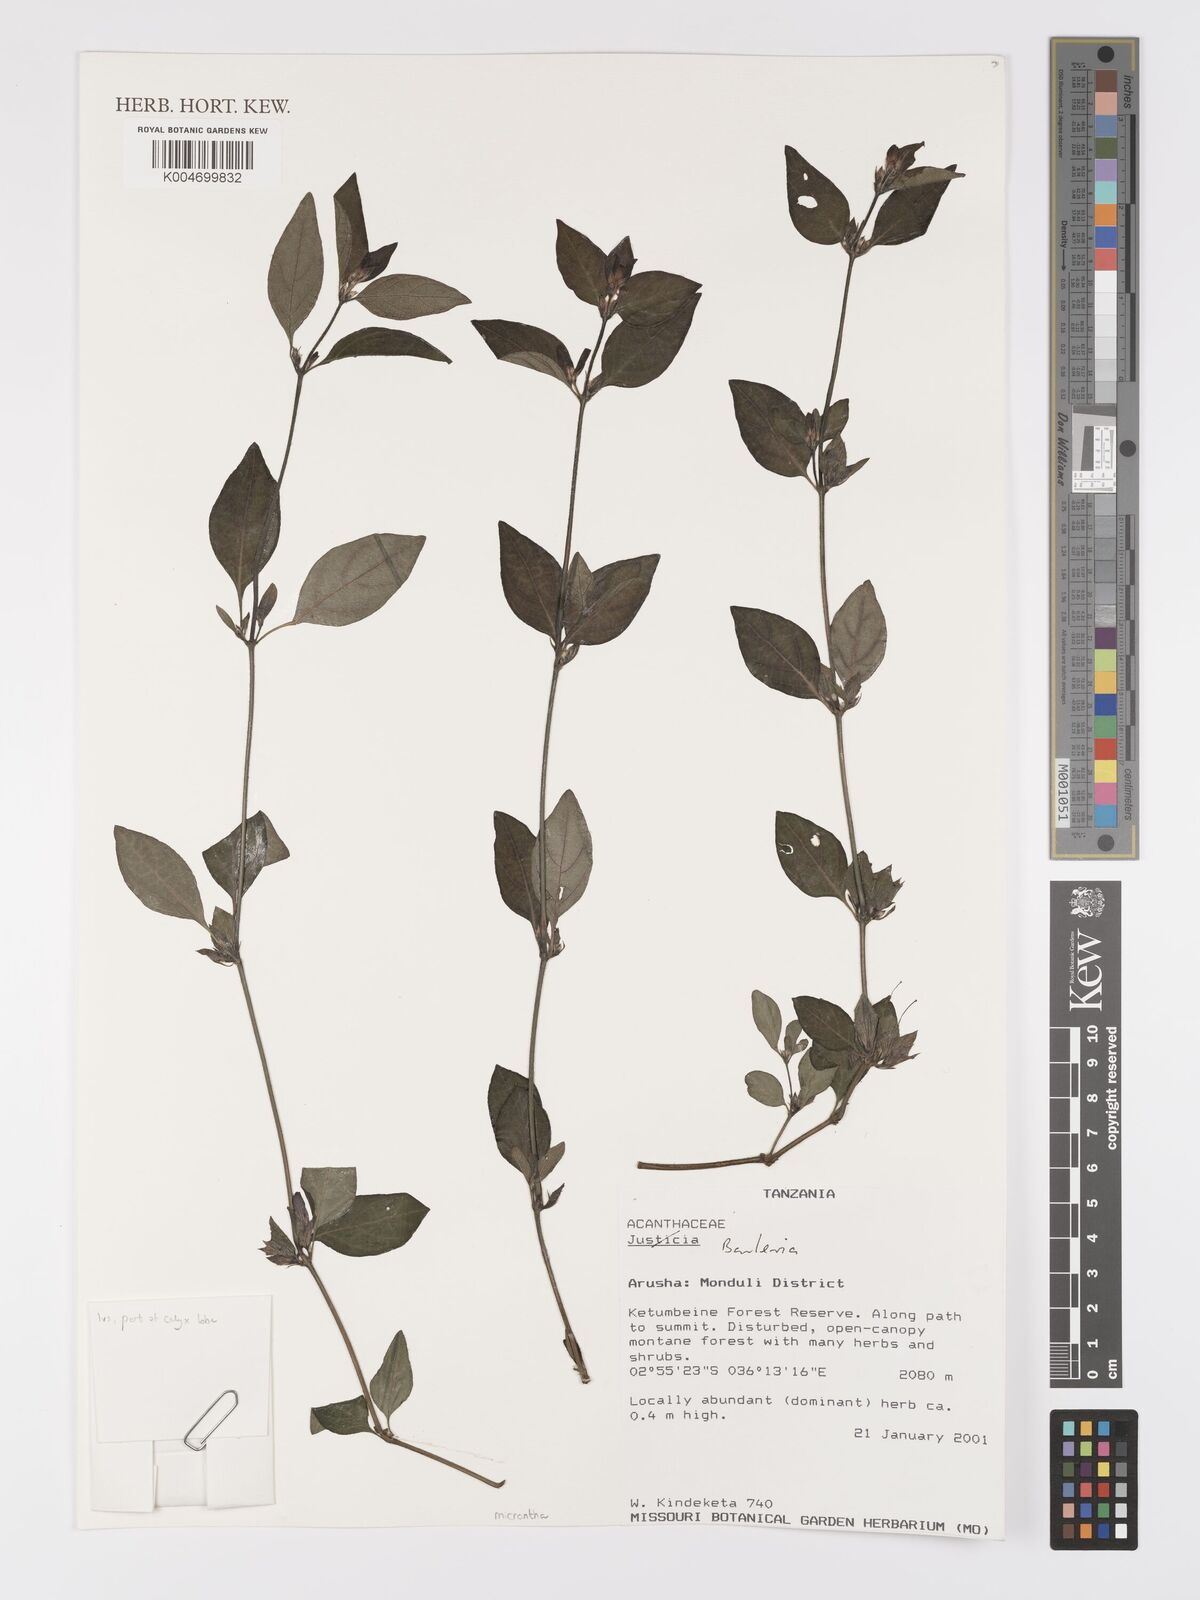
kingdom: Plantae
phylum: Tracheophyta
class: Magnoliopsida
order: Lamiales
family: Acanthaceae
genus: Barleria
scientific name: Barleria ventricosa
